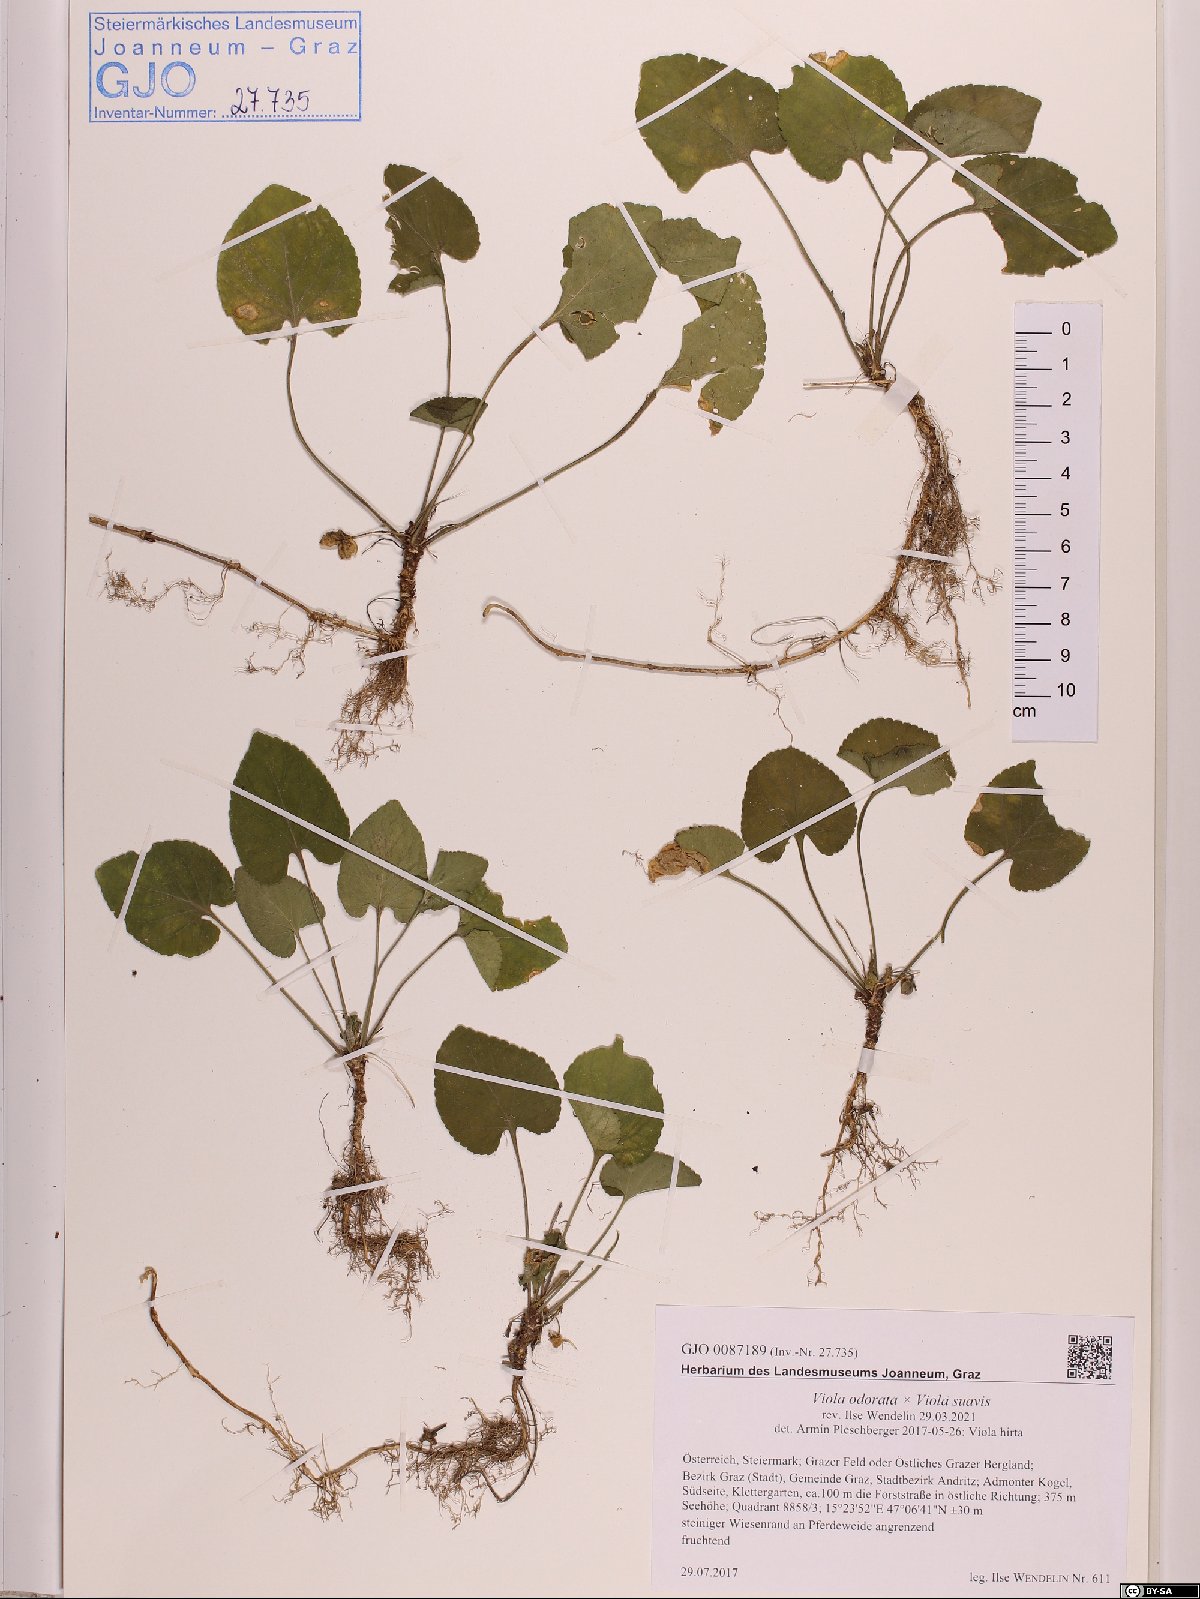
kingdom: Plantae
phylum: Tracheophyta
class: Magnoliopsida
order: Malpighiales
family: Violaceae
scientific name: Violaceae
